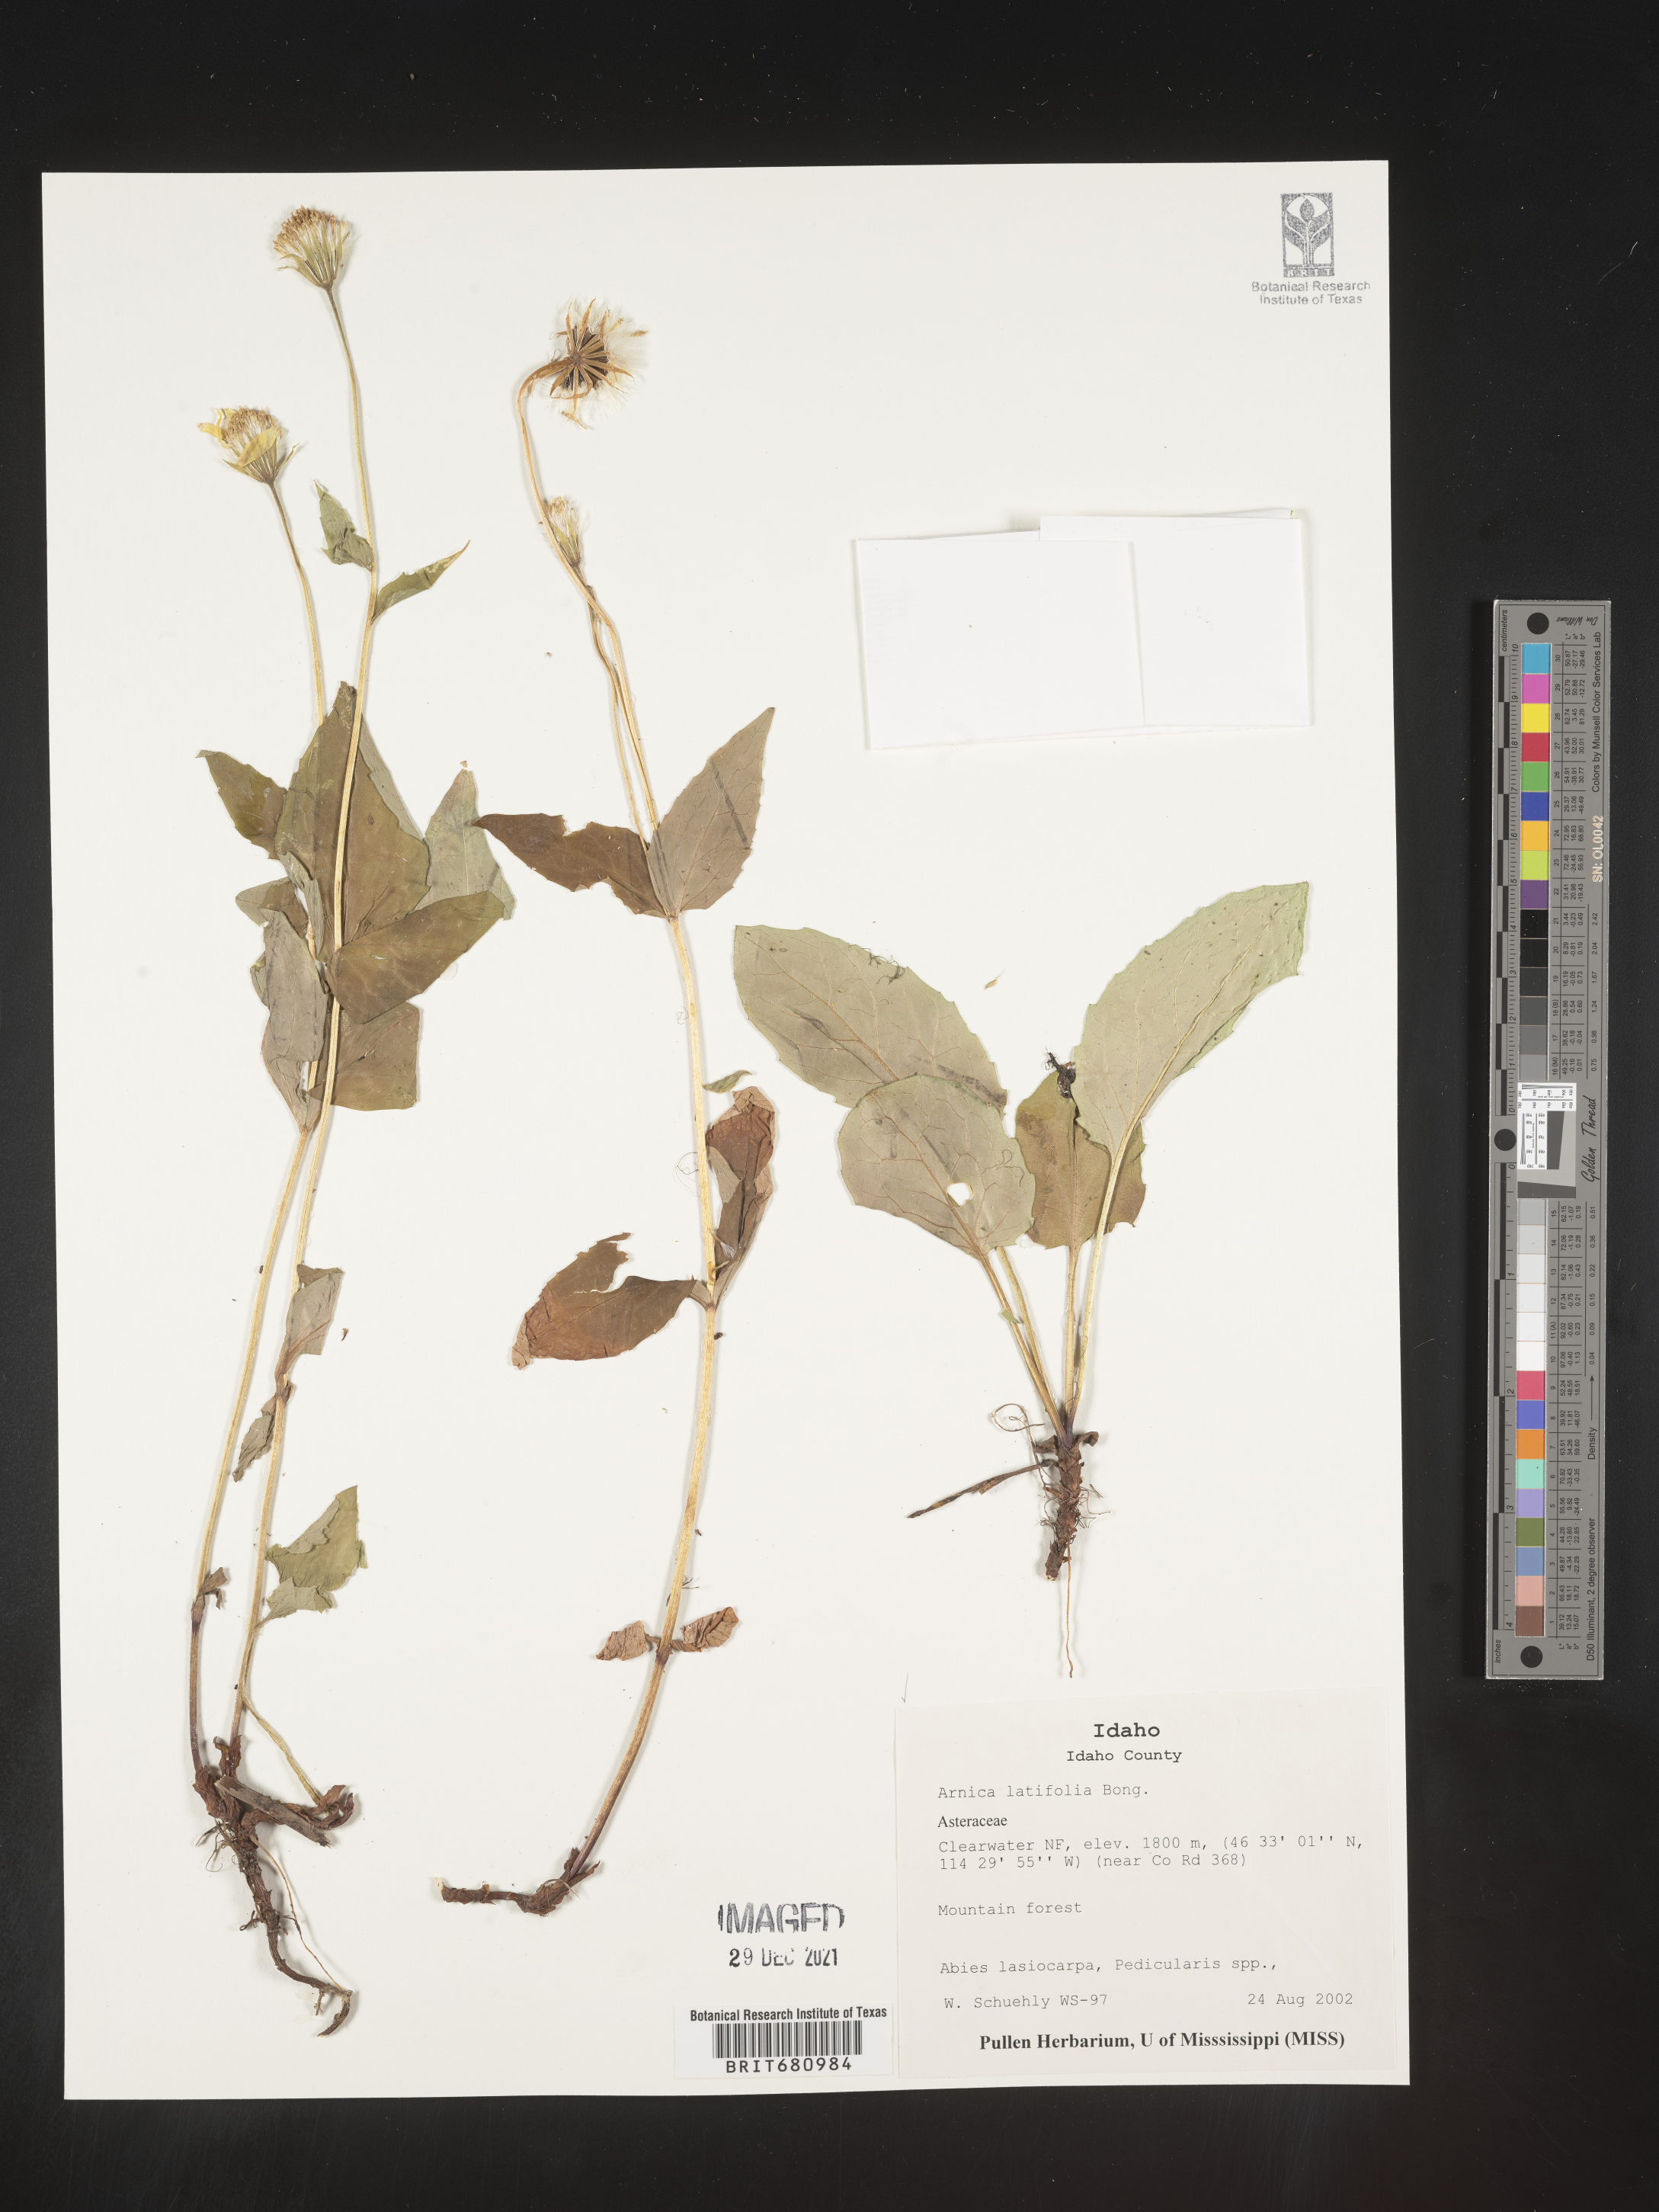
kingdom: Plantae
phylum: Tracheophyta
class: Magnoliopsida
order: Asterales
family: Asteraceae
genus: Arnica
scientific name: Arnica latifolia
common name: Arnica
